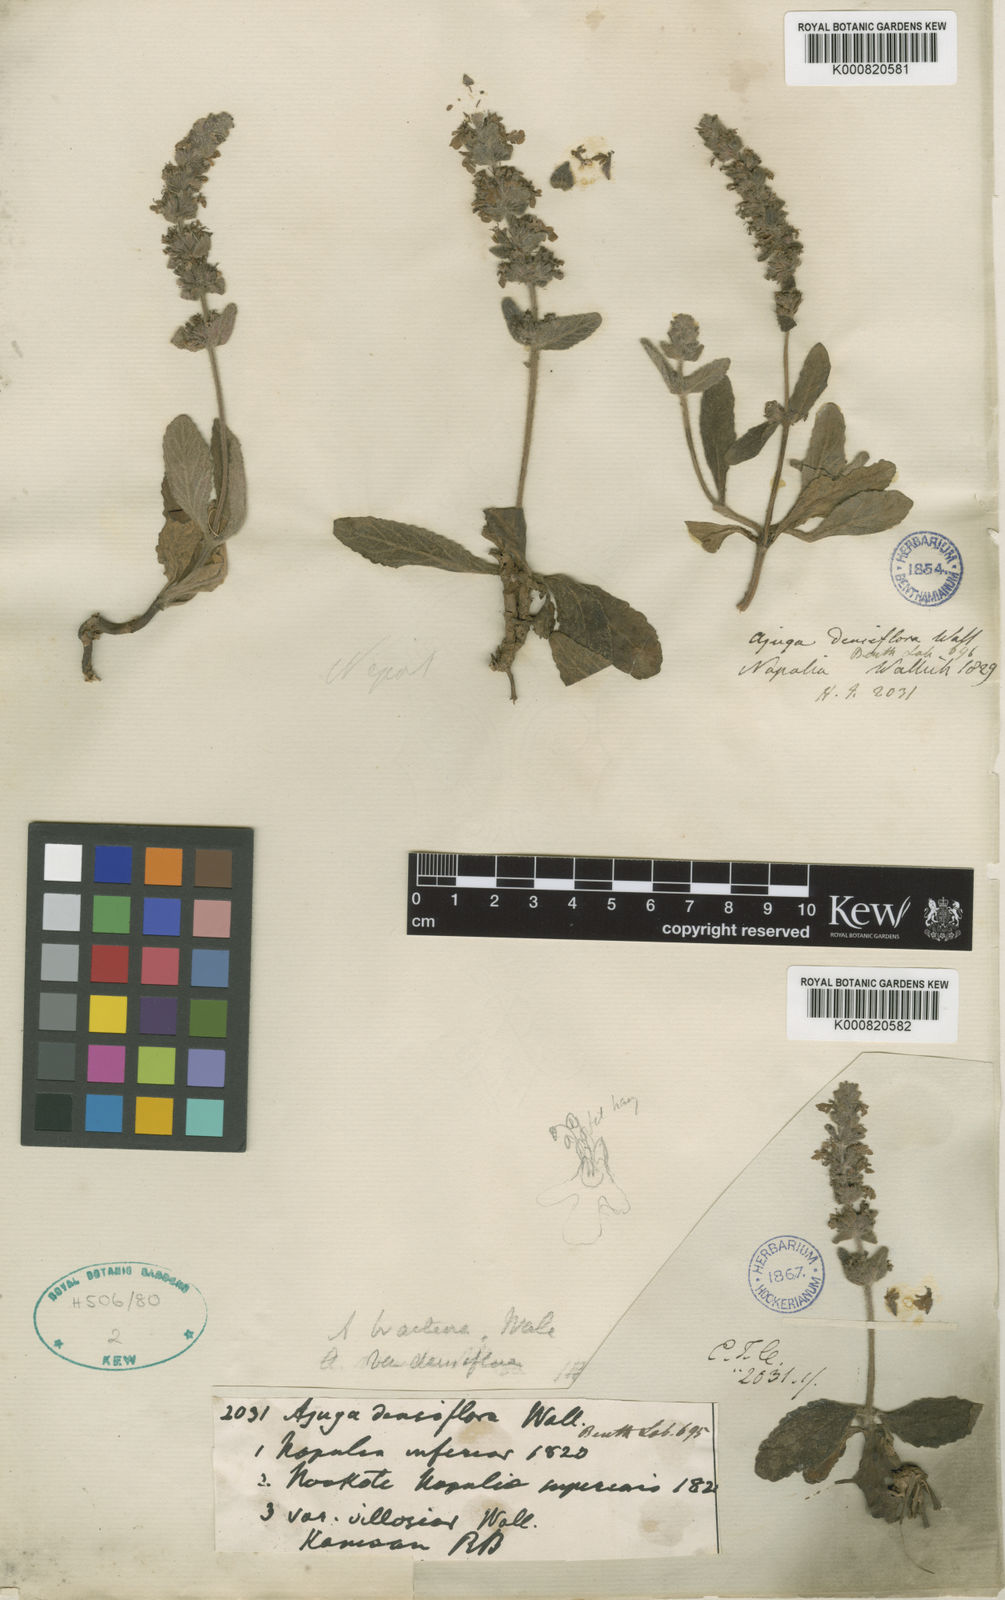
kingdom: Plantae
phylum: Tracheophyta
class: Magnoliopsida
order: Lamiales
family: Lamiaceae
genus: Ajuga
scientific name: Ajuga integrifolia
